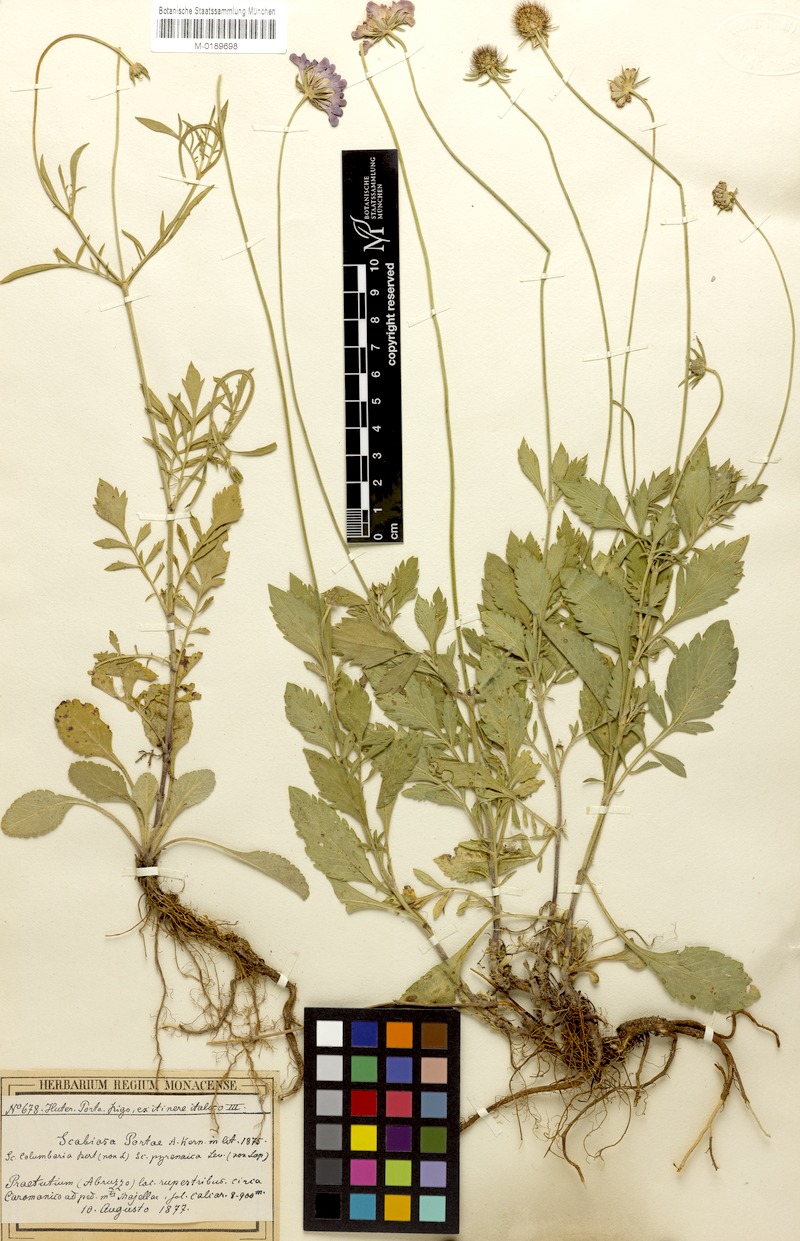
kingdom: Plantae
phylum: Tracheophyta
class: Magnoliopsida
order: Dipsacales
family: Caprifoliaceae
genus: Scabiosa
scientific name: Scabiosa taygetea
